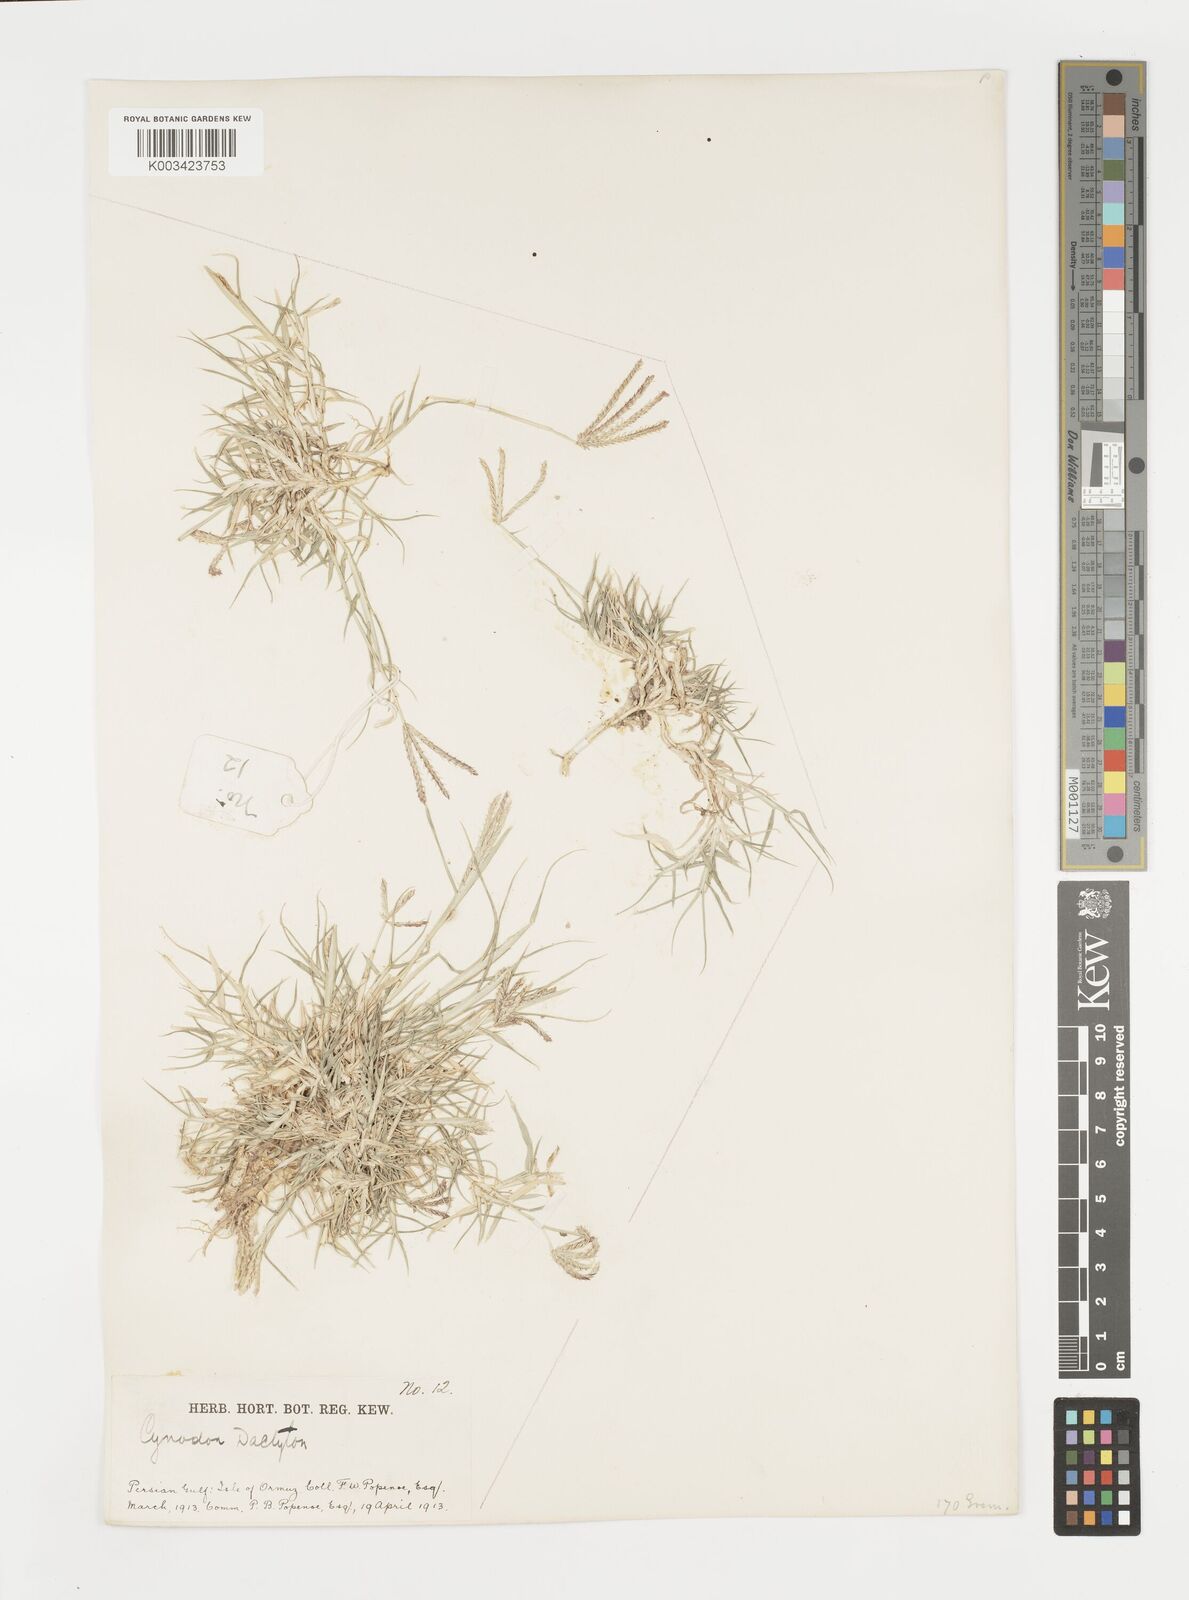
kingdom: Plantae
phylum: Tracheophyta
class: Liliopsida
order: Poales
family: Poaceae
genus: Cynodon
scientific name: Cynodon dactylon
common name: Bermuda grass
